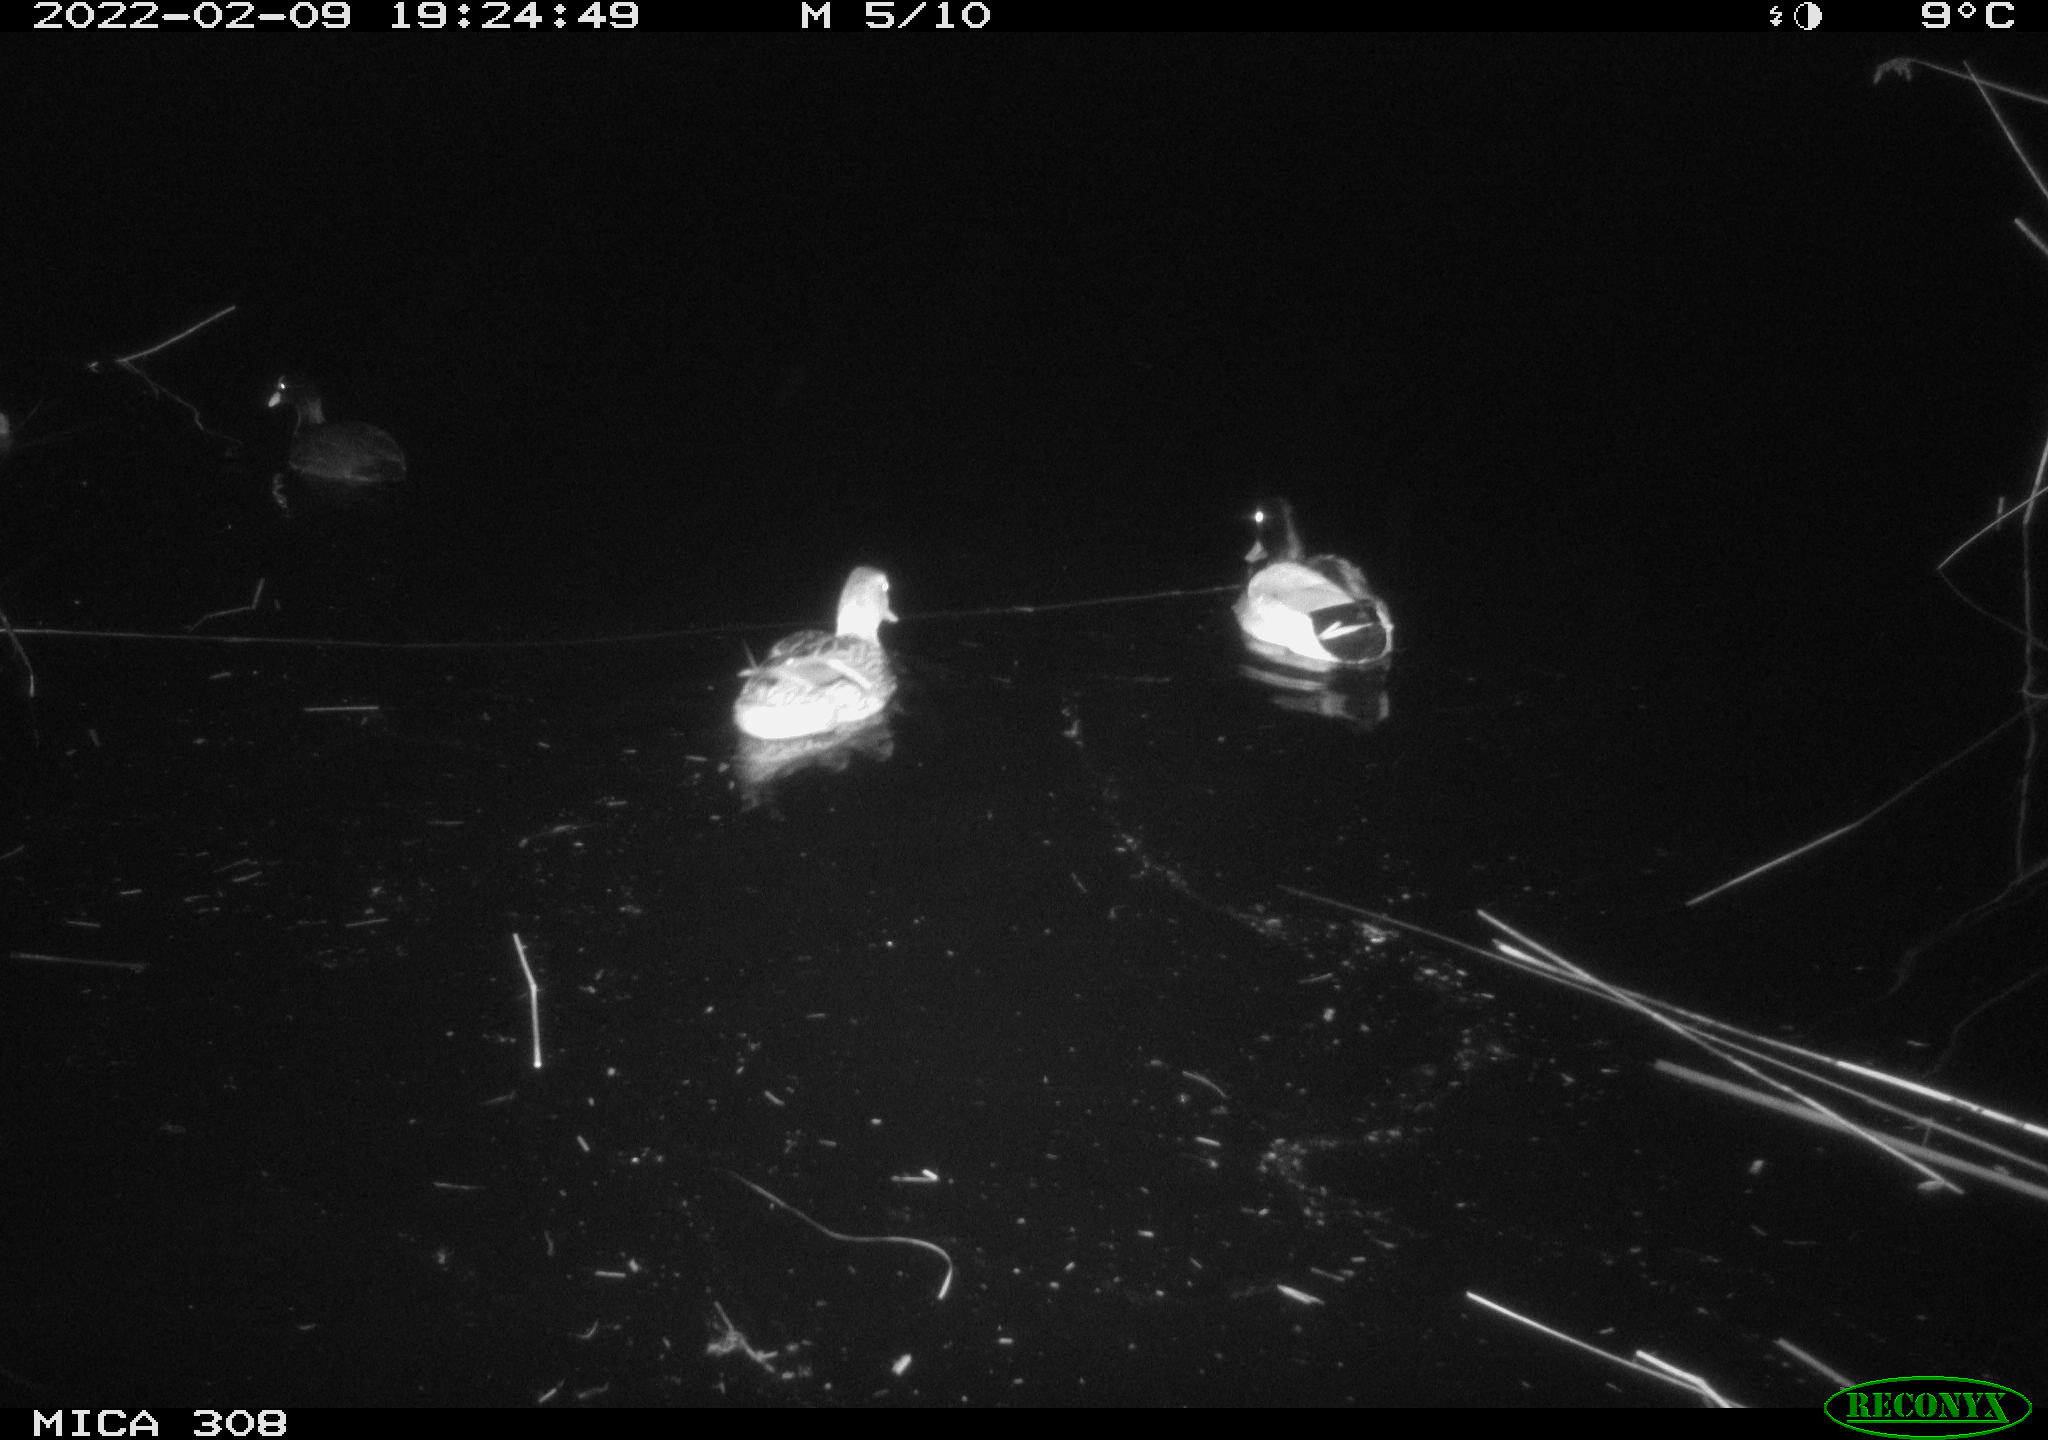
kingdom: Animalia
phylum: Chordata
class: Aves
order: Gruiformes
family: Rallidae
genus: Fulica
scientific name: Fulica atra
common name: Eurasian coot
